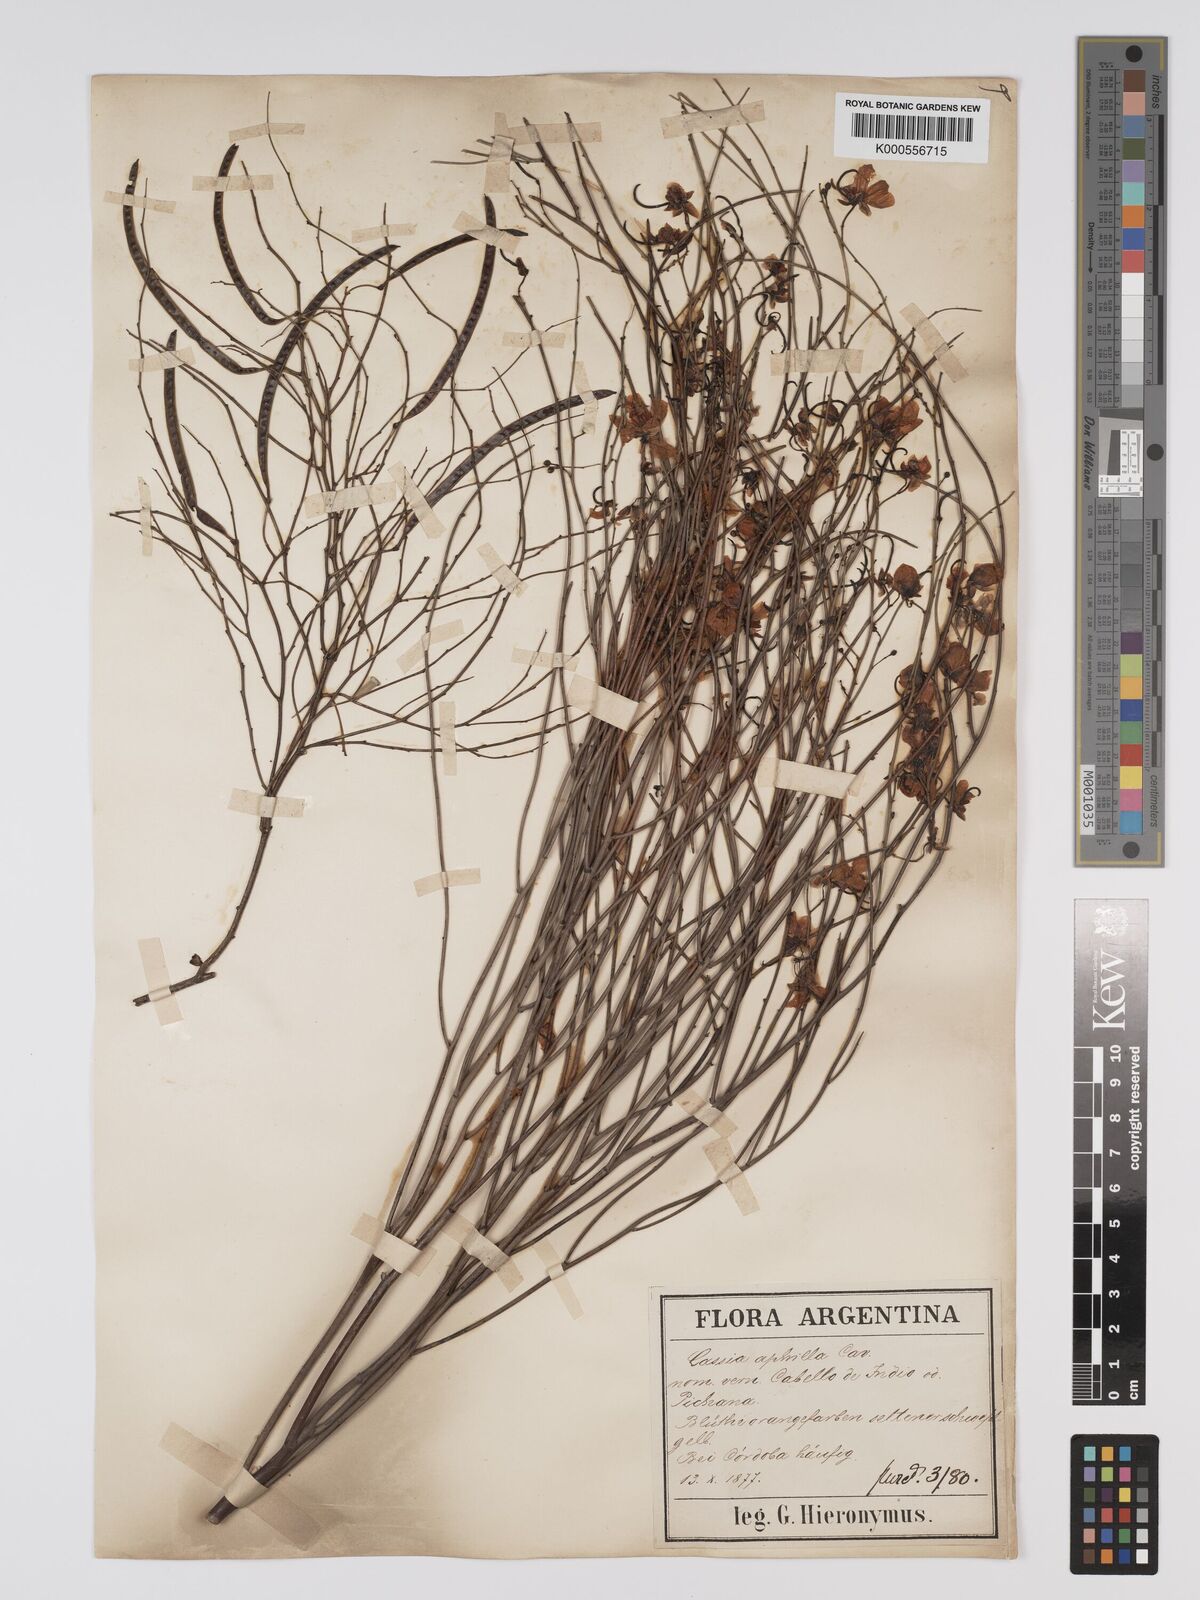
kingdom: Plantae
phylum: Tracheophyta
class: Magnoliopsida
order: Fabales
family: Fabaceae
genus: Senna
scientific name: Senna aphylla
